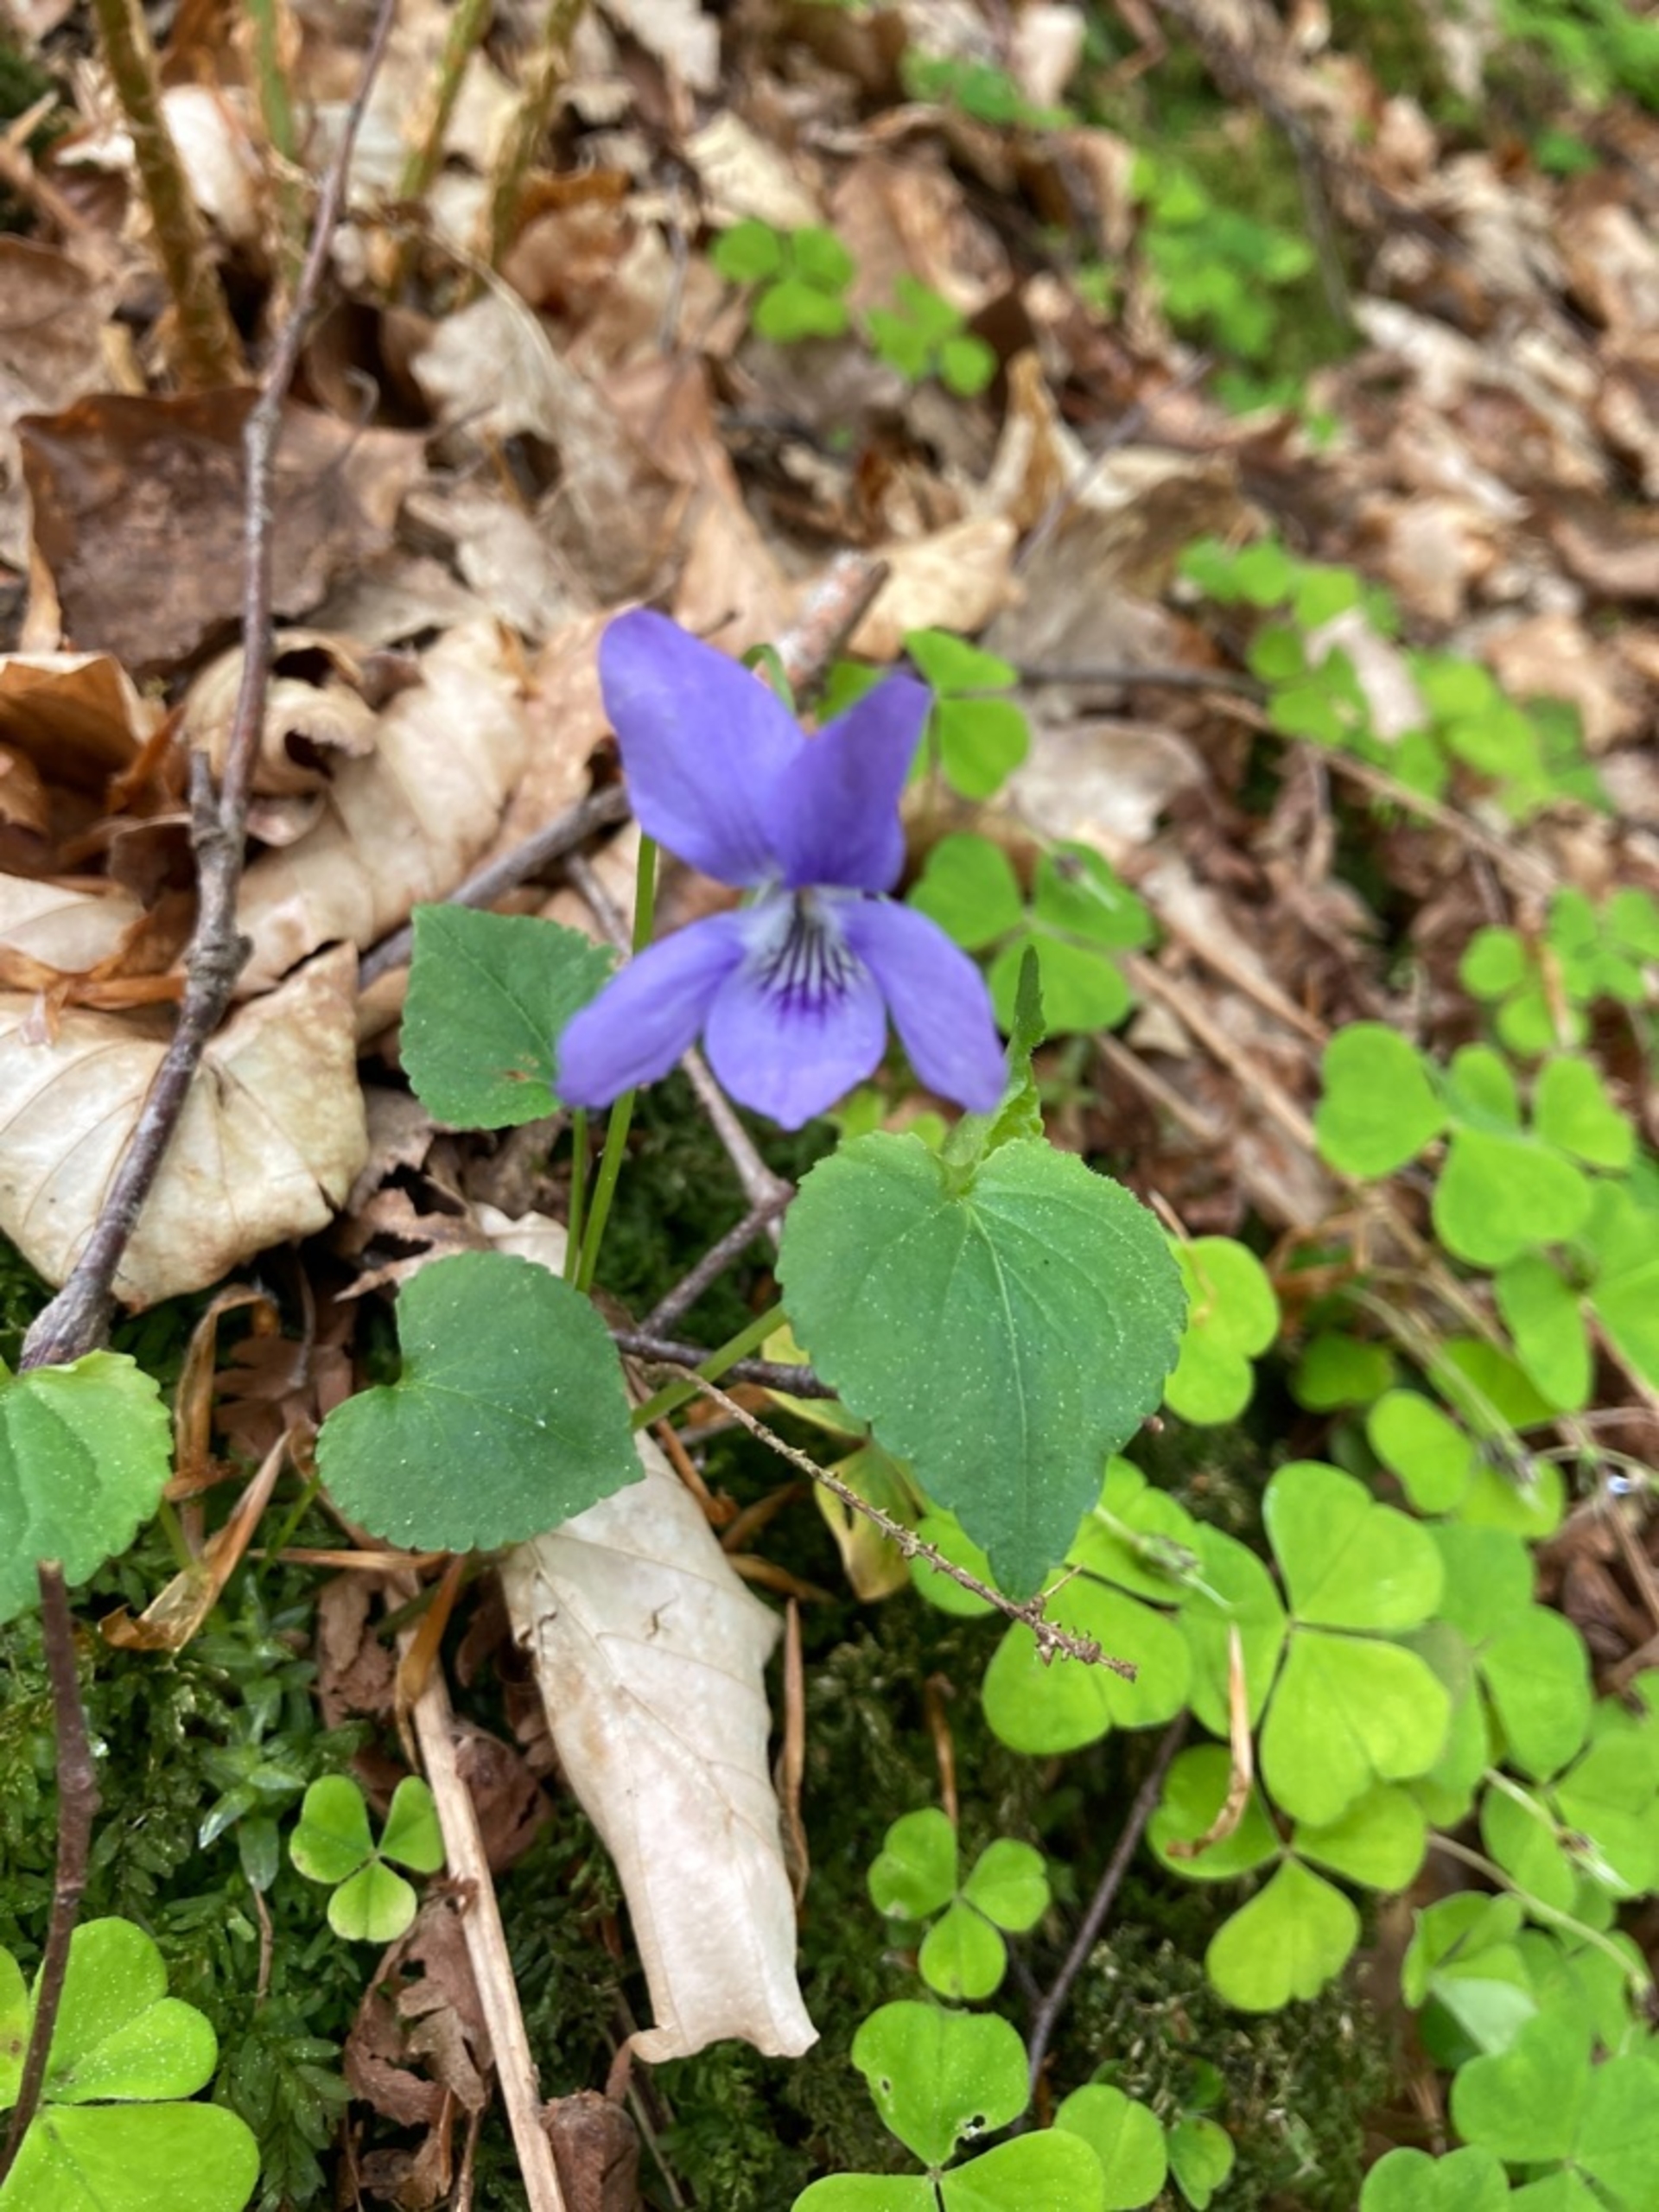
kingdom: Plantae
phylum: Tracheophyta
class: Magnoliopsida
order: Malpighiales
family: Violaceae
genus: Viola
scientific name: Viola riviniana
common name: Krat-viol
